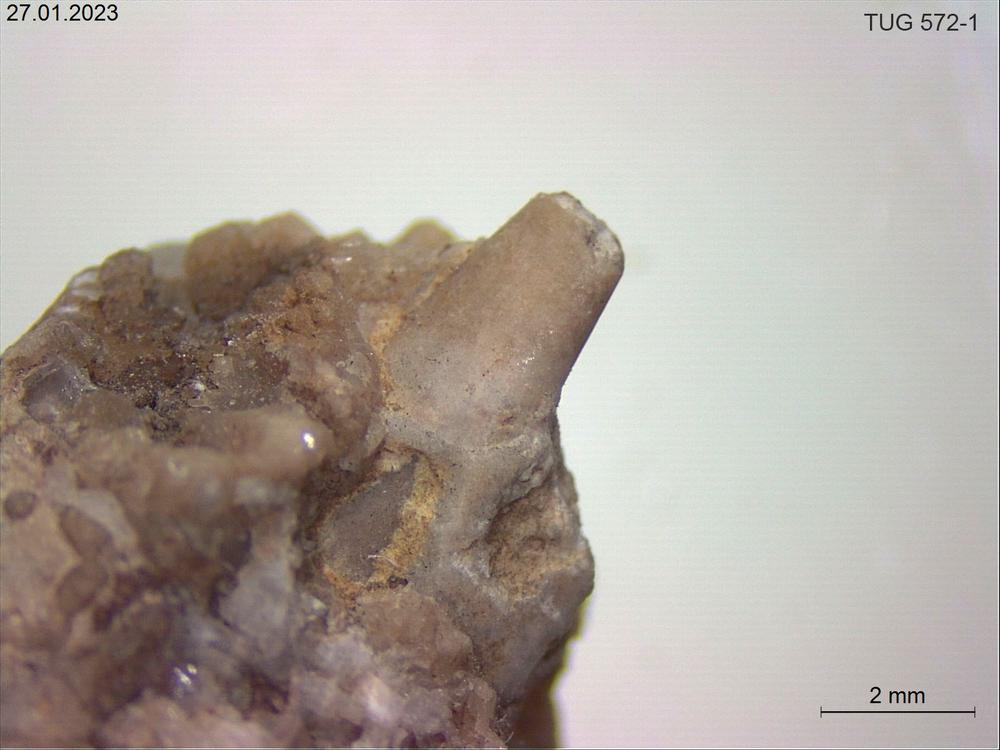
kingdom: Animalia
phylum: Mollusca
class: Cephalopoda
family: Endoceratidae
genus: Endoceras
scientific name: Endoceras
